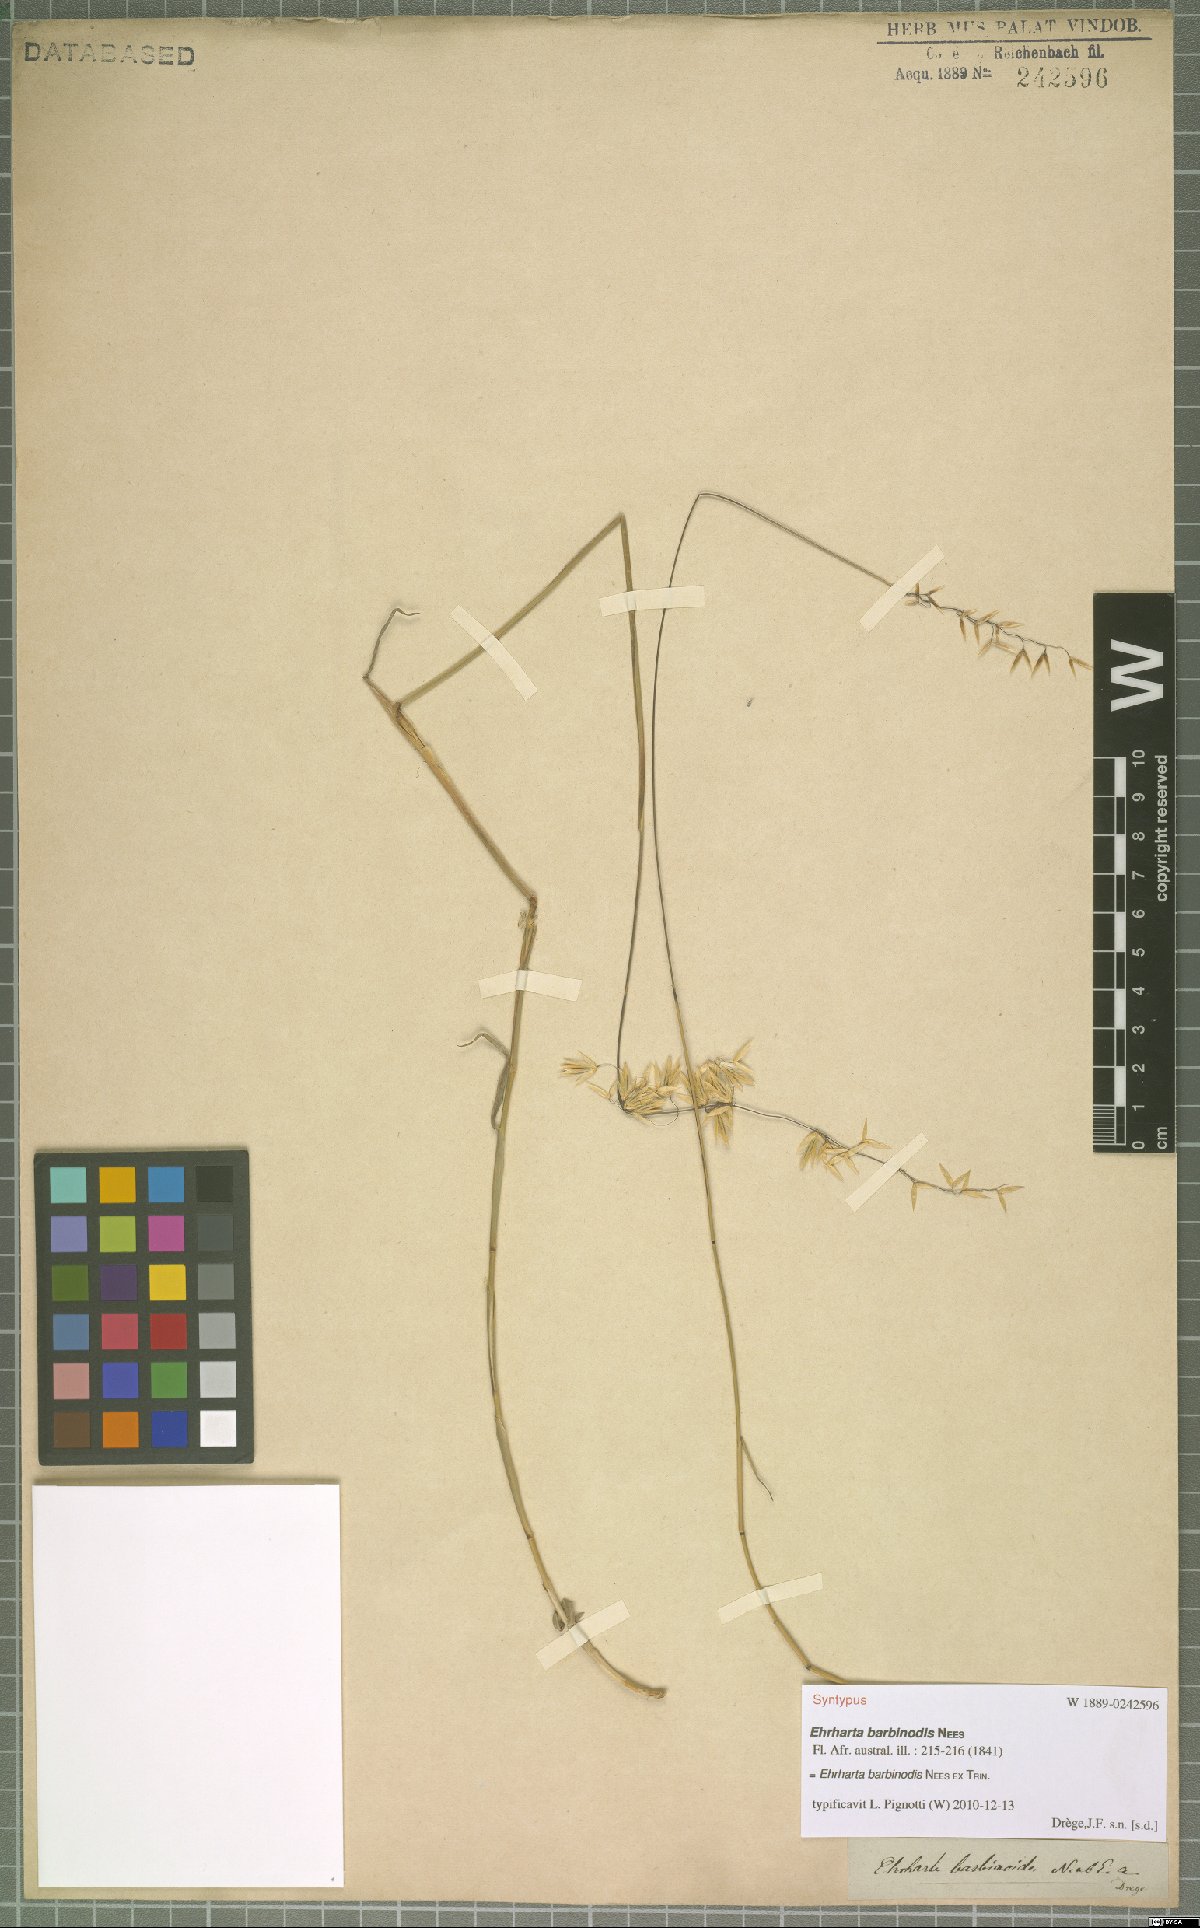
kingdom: Plantae
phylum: Tracheophyta
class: Liliopsida
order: Poales
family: Poaceae
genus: Ehrharta
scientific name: Ehrharta barbinodis
